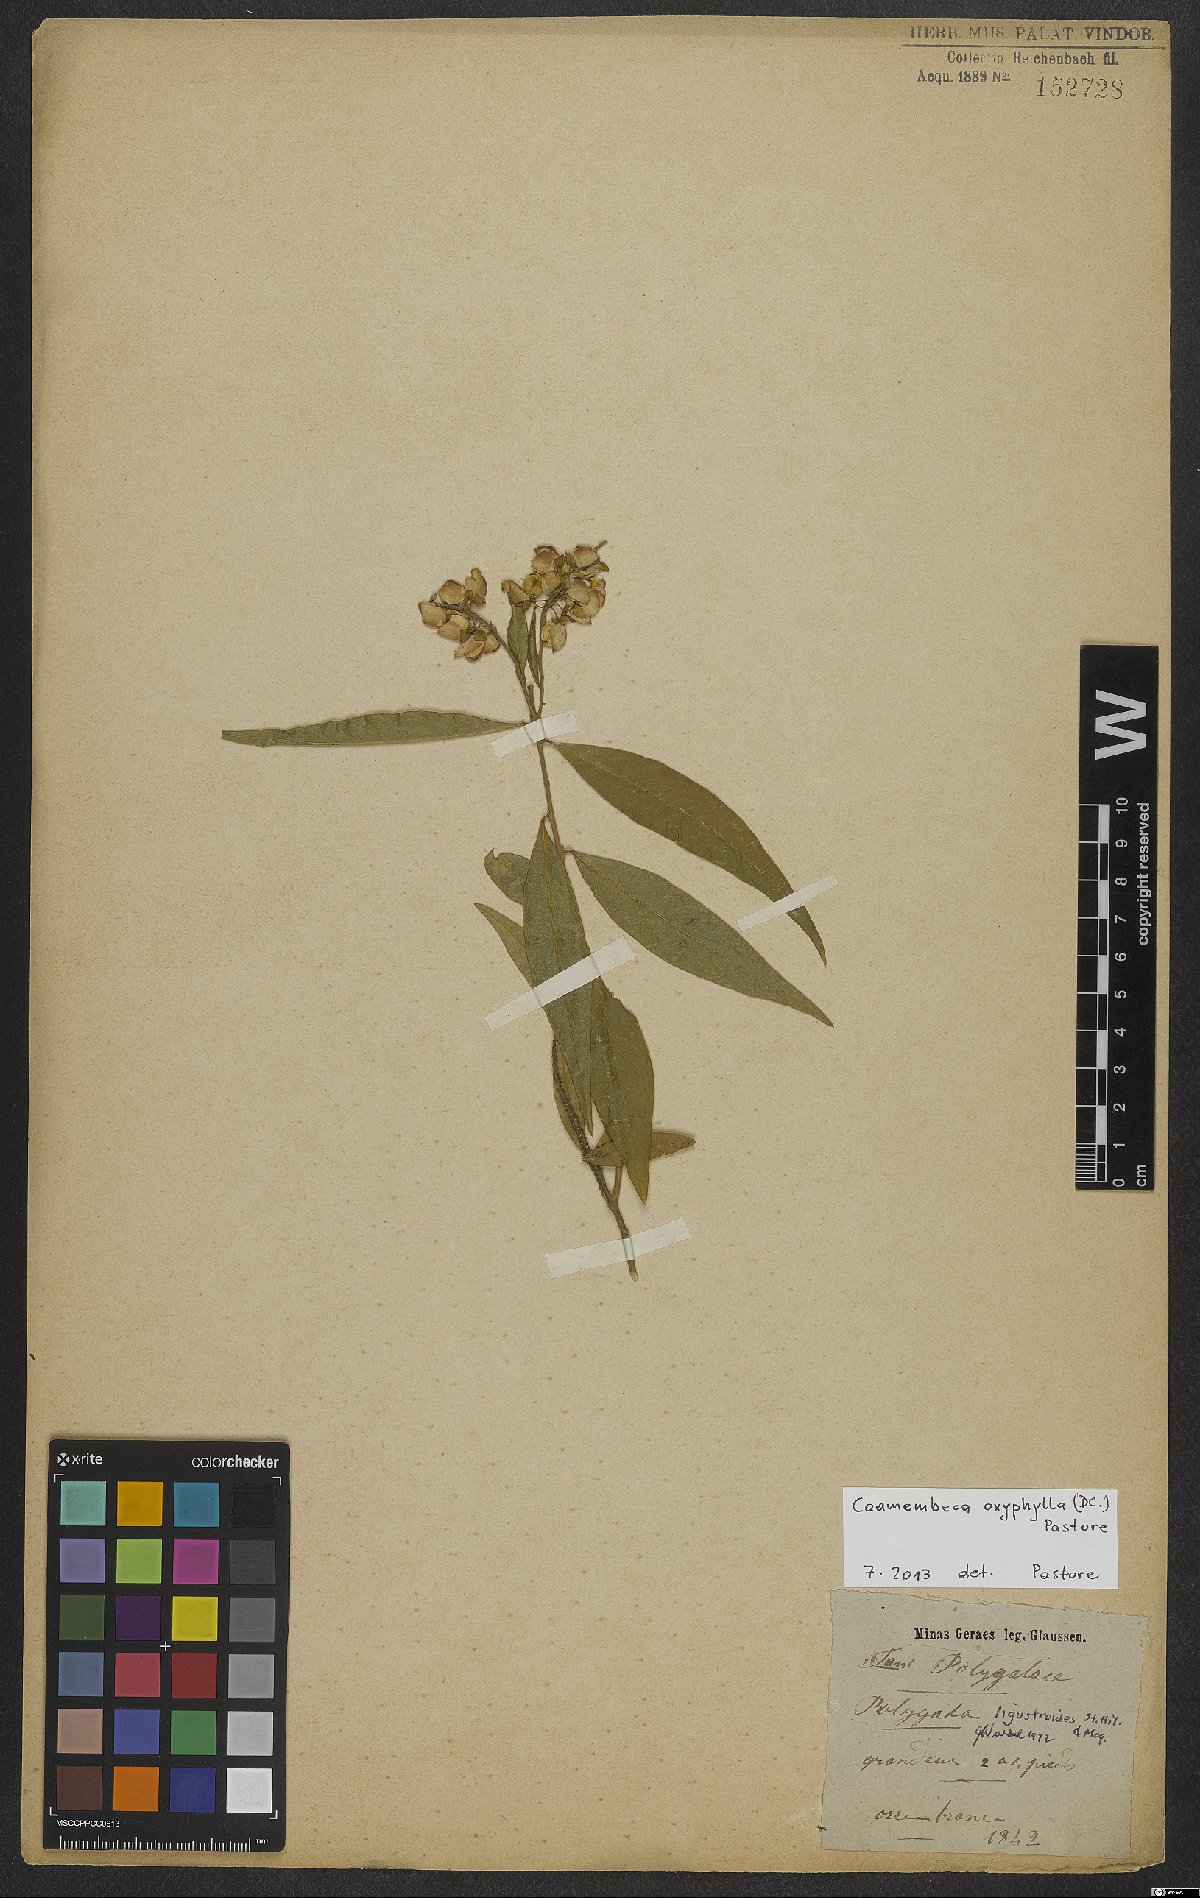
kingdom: Plantae
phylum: Tracheophyta
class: Magnoliopsida
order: Fabales
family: Polygalaceae
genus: Caamembeca
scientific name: Caamembeca oxyphylla
